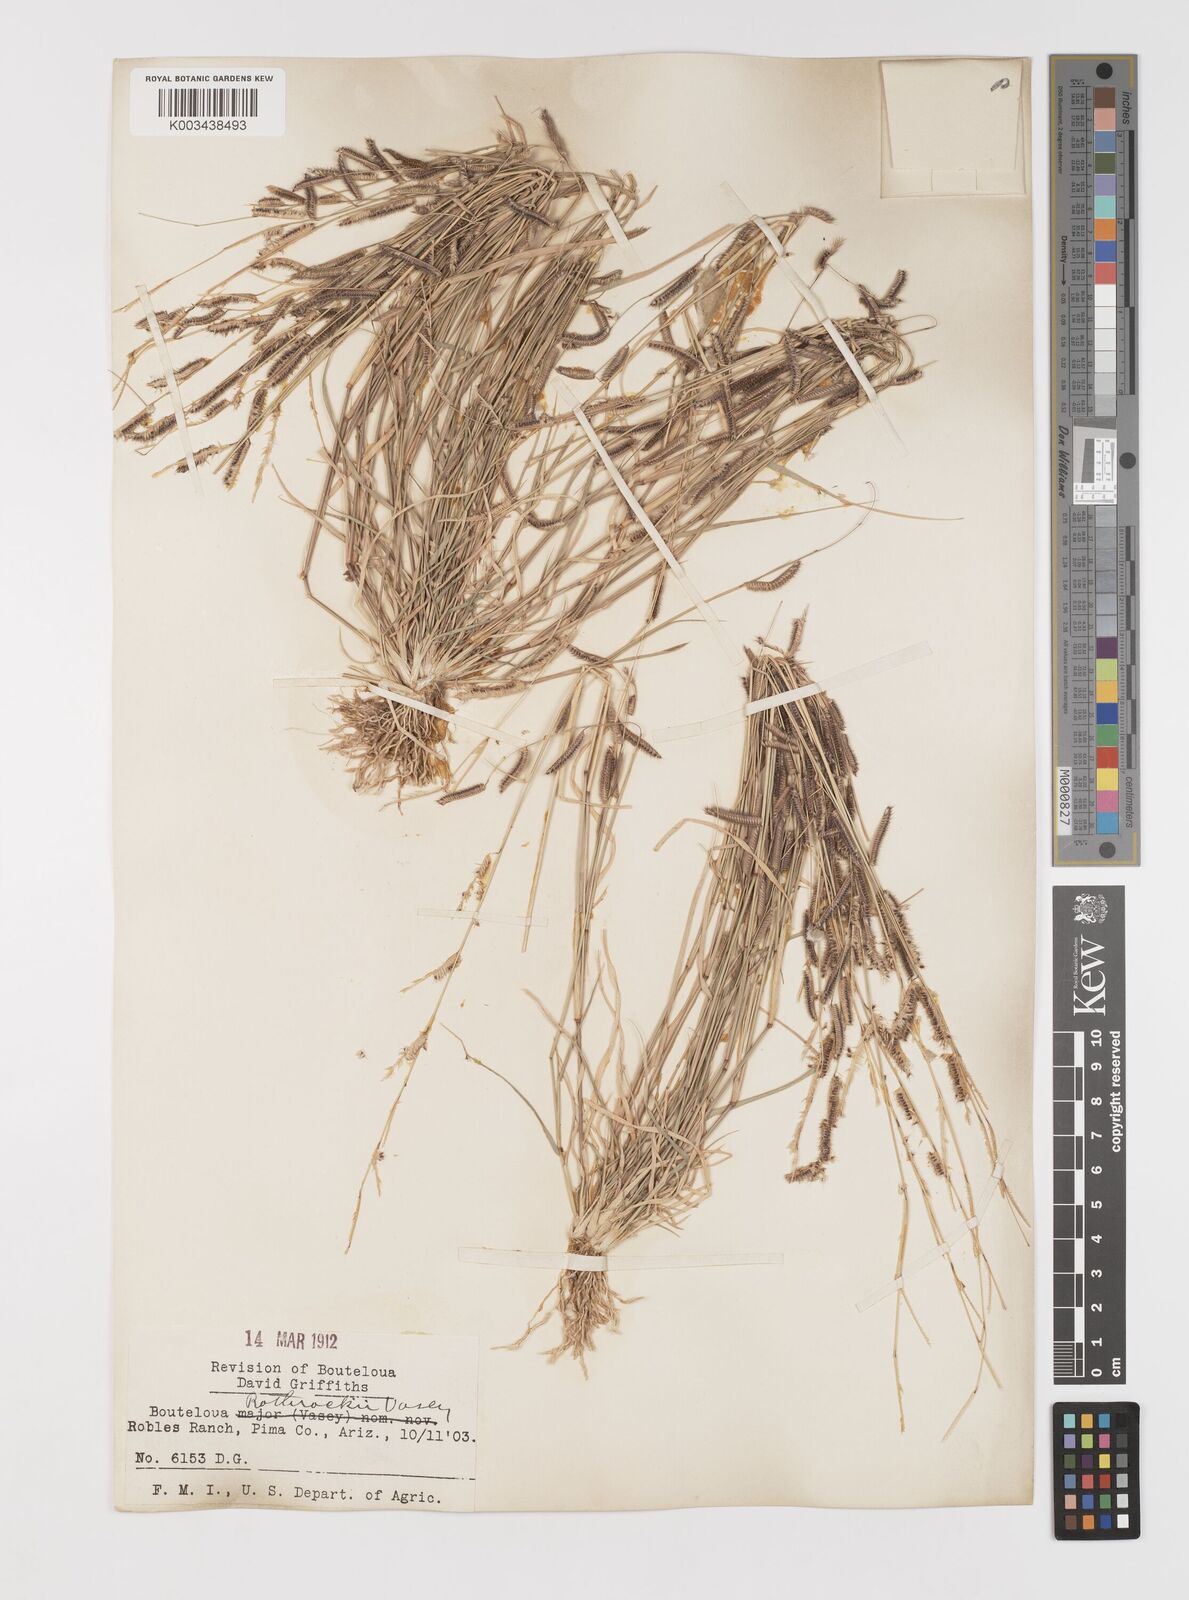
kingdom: Plantae
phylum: Tracheophyta
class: Liliopsida
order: Poales
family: Poaceae
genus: Bouteloua
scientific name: Bouteloua
